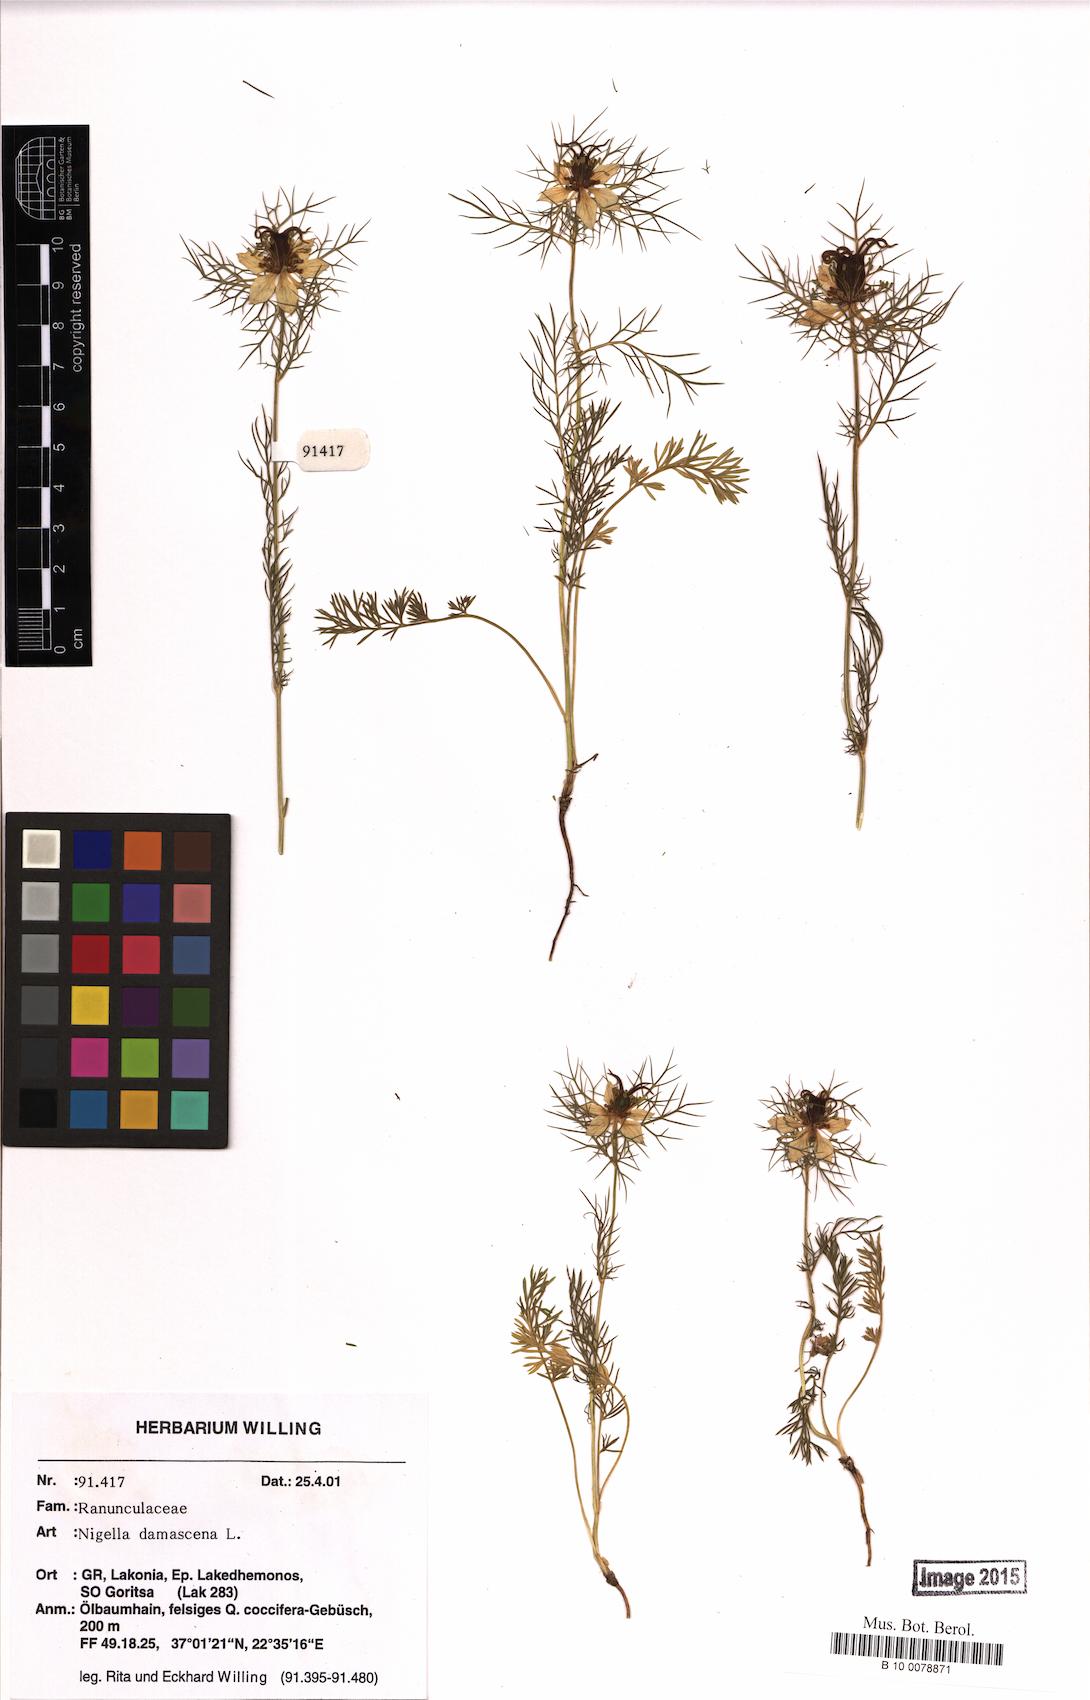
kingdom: Plantae
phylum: Tracheophyta
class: Magnoliopsida
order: Ranunculales
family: Ranunculaceae
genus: Nigella
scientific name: Nigella damascena
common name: Love-in-a-mist
